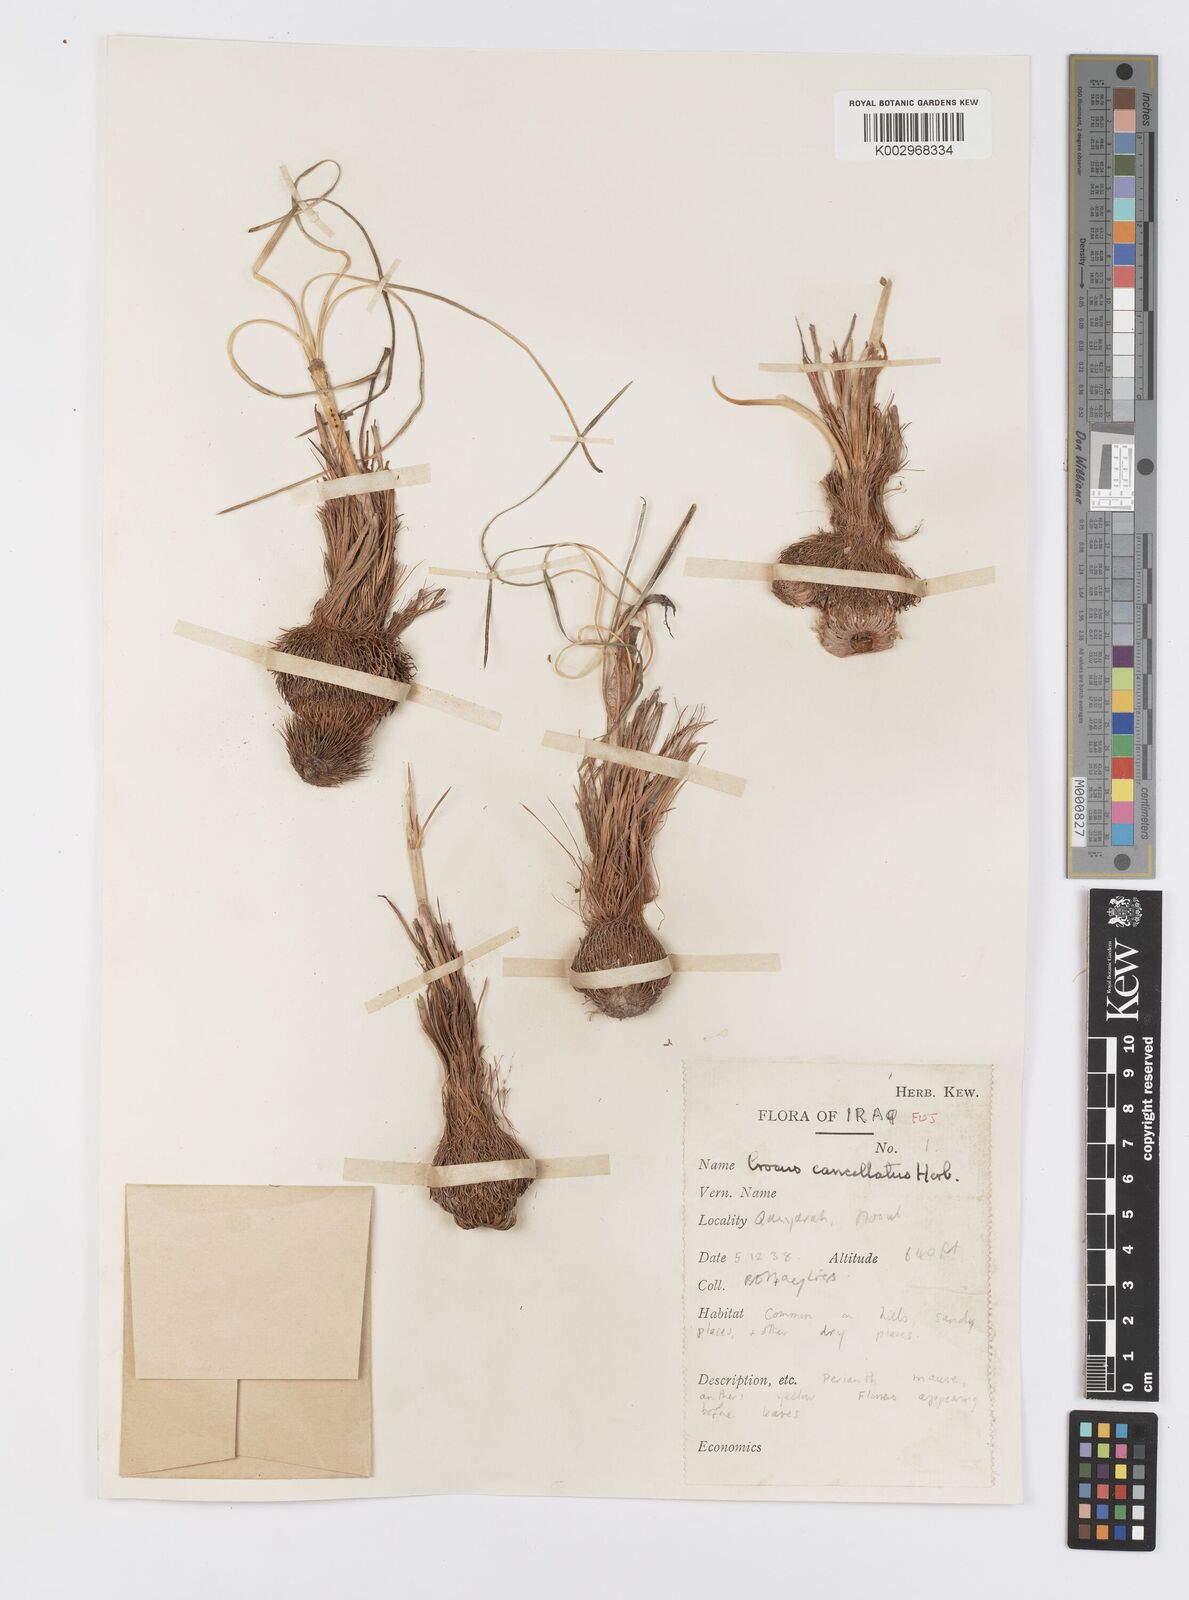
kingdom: Plantae
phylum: Tracheophyta
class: Liliopsida
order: Asparagales
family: Iridaceae
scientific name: Iridaceae
